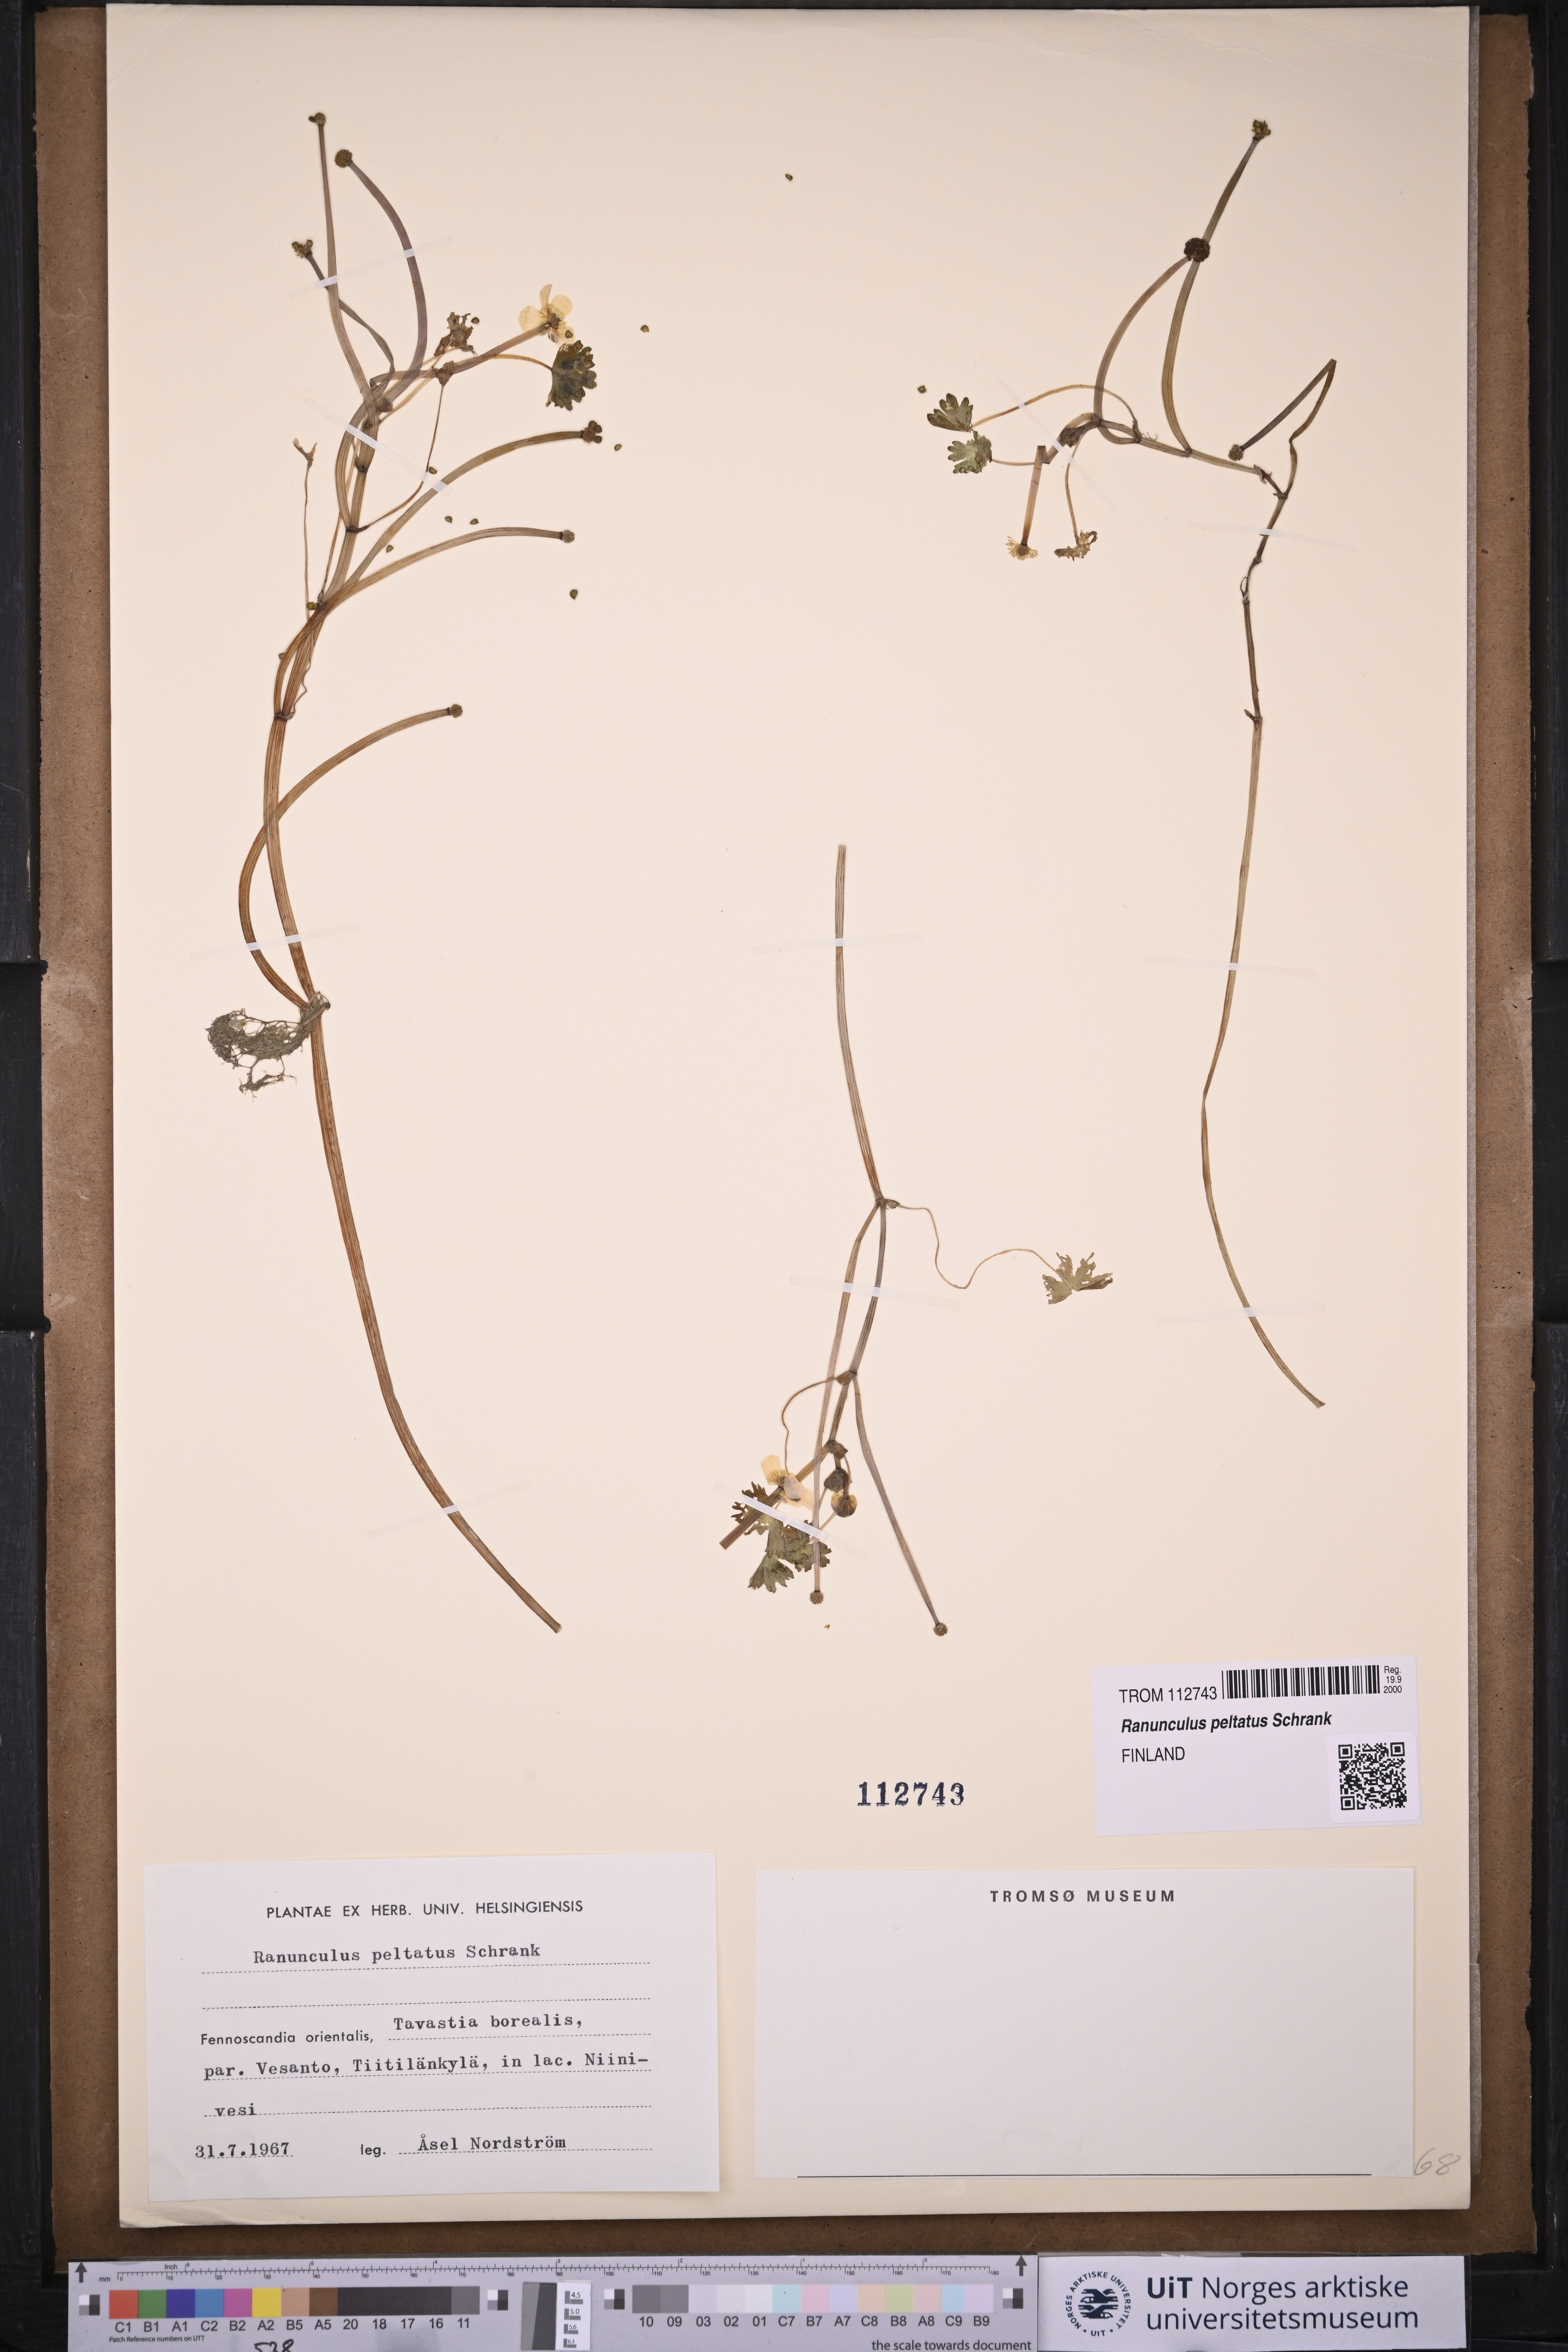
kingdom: Plantae
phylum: Tracheophyta
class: Magnoliopsida
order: Ranunculales
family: Ranunculaceae
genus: Ranunculus
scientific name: Ranunculus peltatus
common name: Pond water-crowfoot
